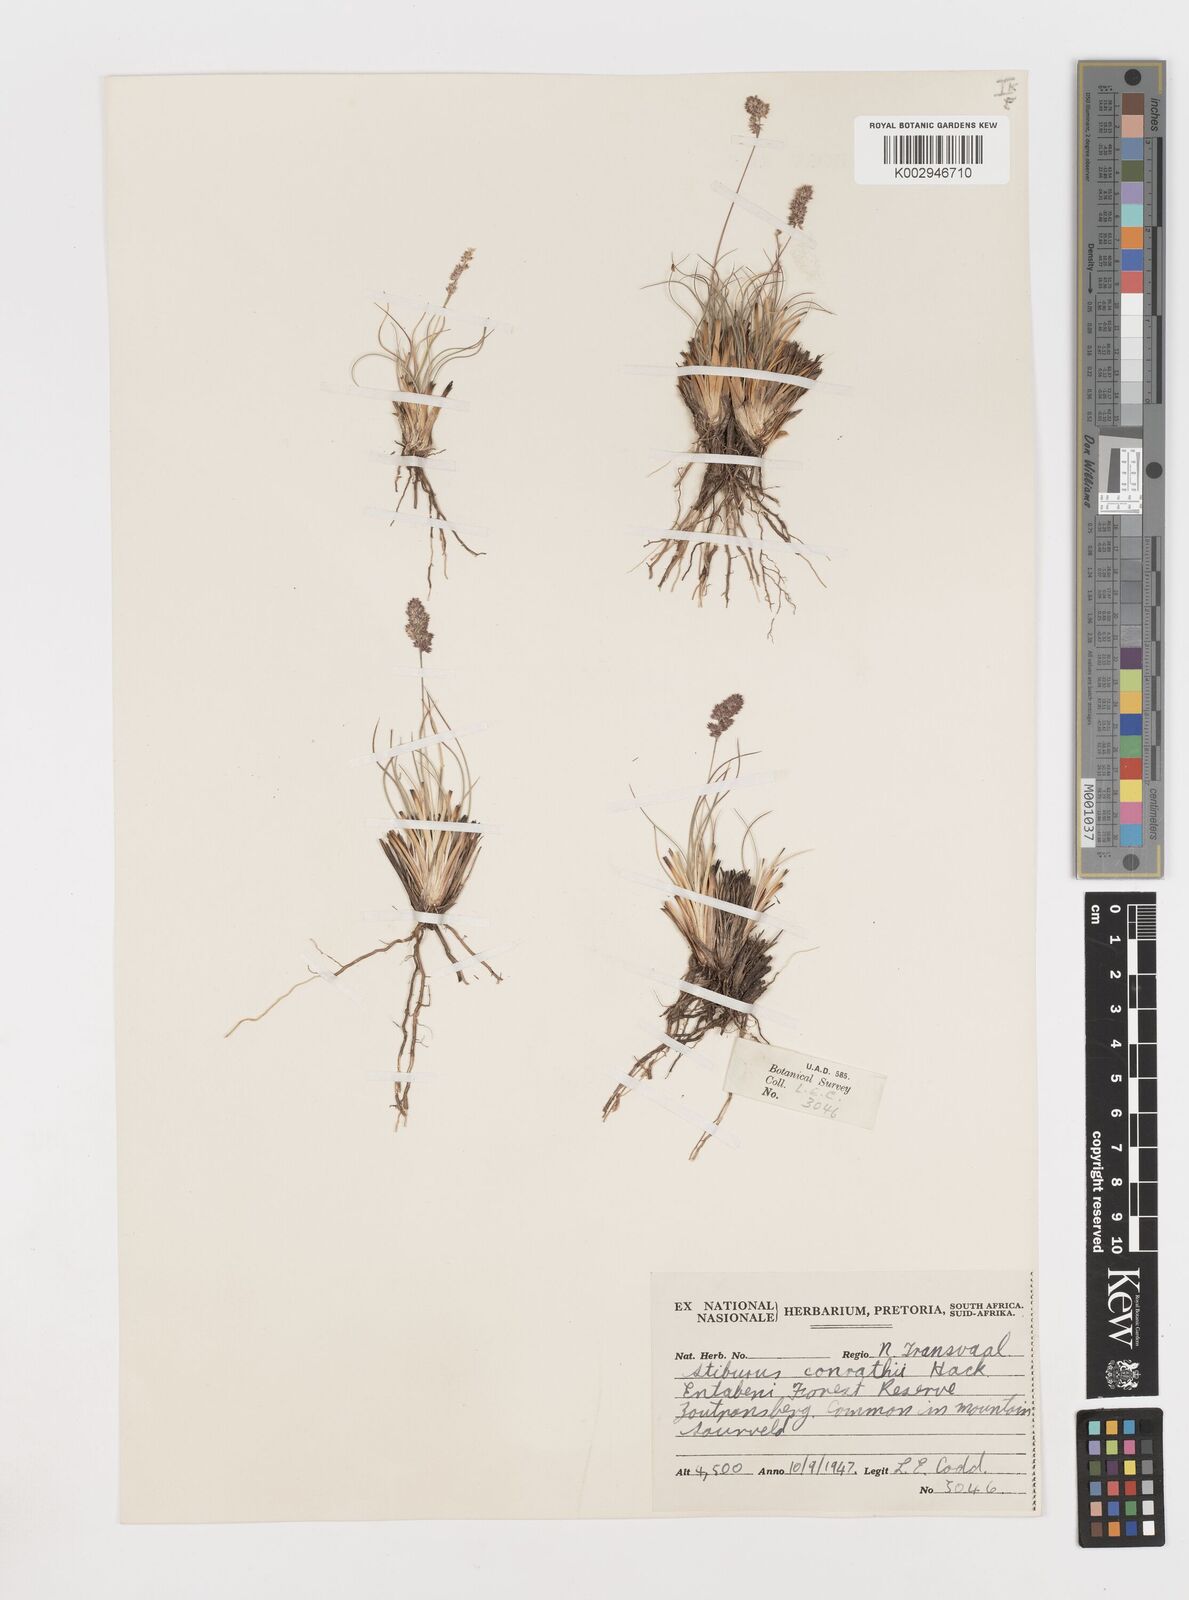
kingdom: Plantae
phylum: Tracheophyta
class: Liliopsida
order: Poales
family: Poaceae
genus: Stiburus
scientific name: Stiburus conrathii
